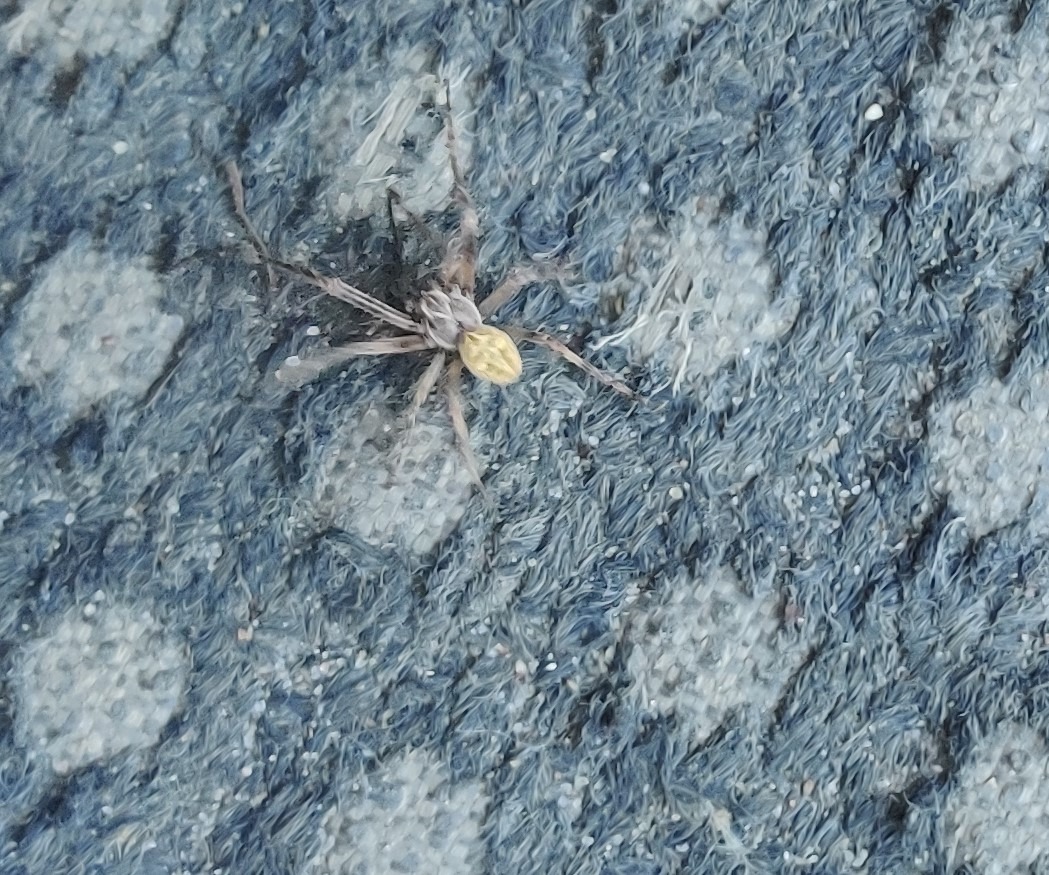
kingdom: Animalia
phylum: Arthropoda
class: Arachnida
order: Araneae
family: Araneidae
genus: Larinioides
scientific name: Larinioides sclopetarius
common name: Bolværksedderkop
